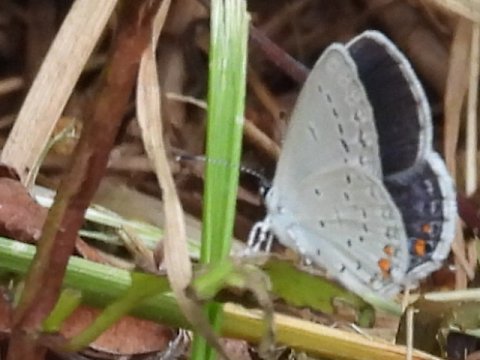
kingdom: Animalia
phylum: Arthropoda
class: Insecta
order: Lepidoptera
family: Lycaenidae
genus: Elkalyce
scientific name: Elkalyce comyntas
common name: Eastern Tailed-Blue
